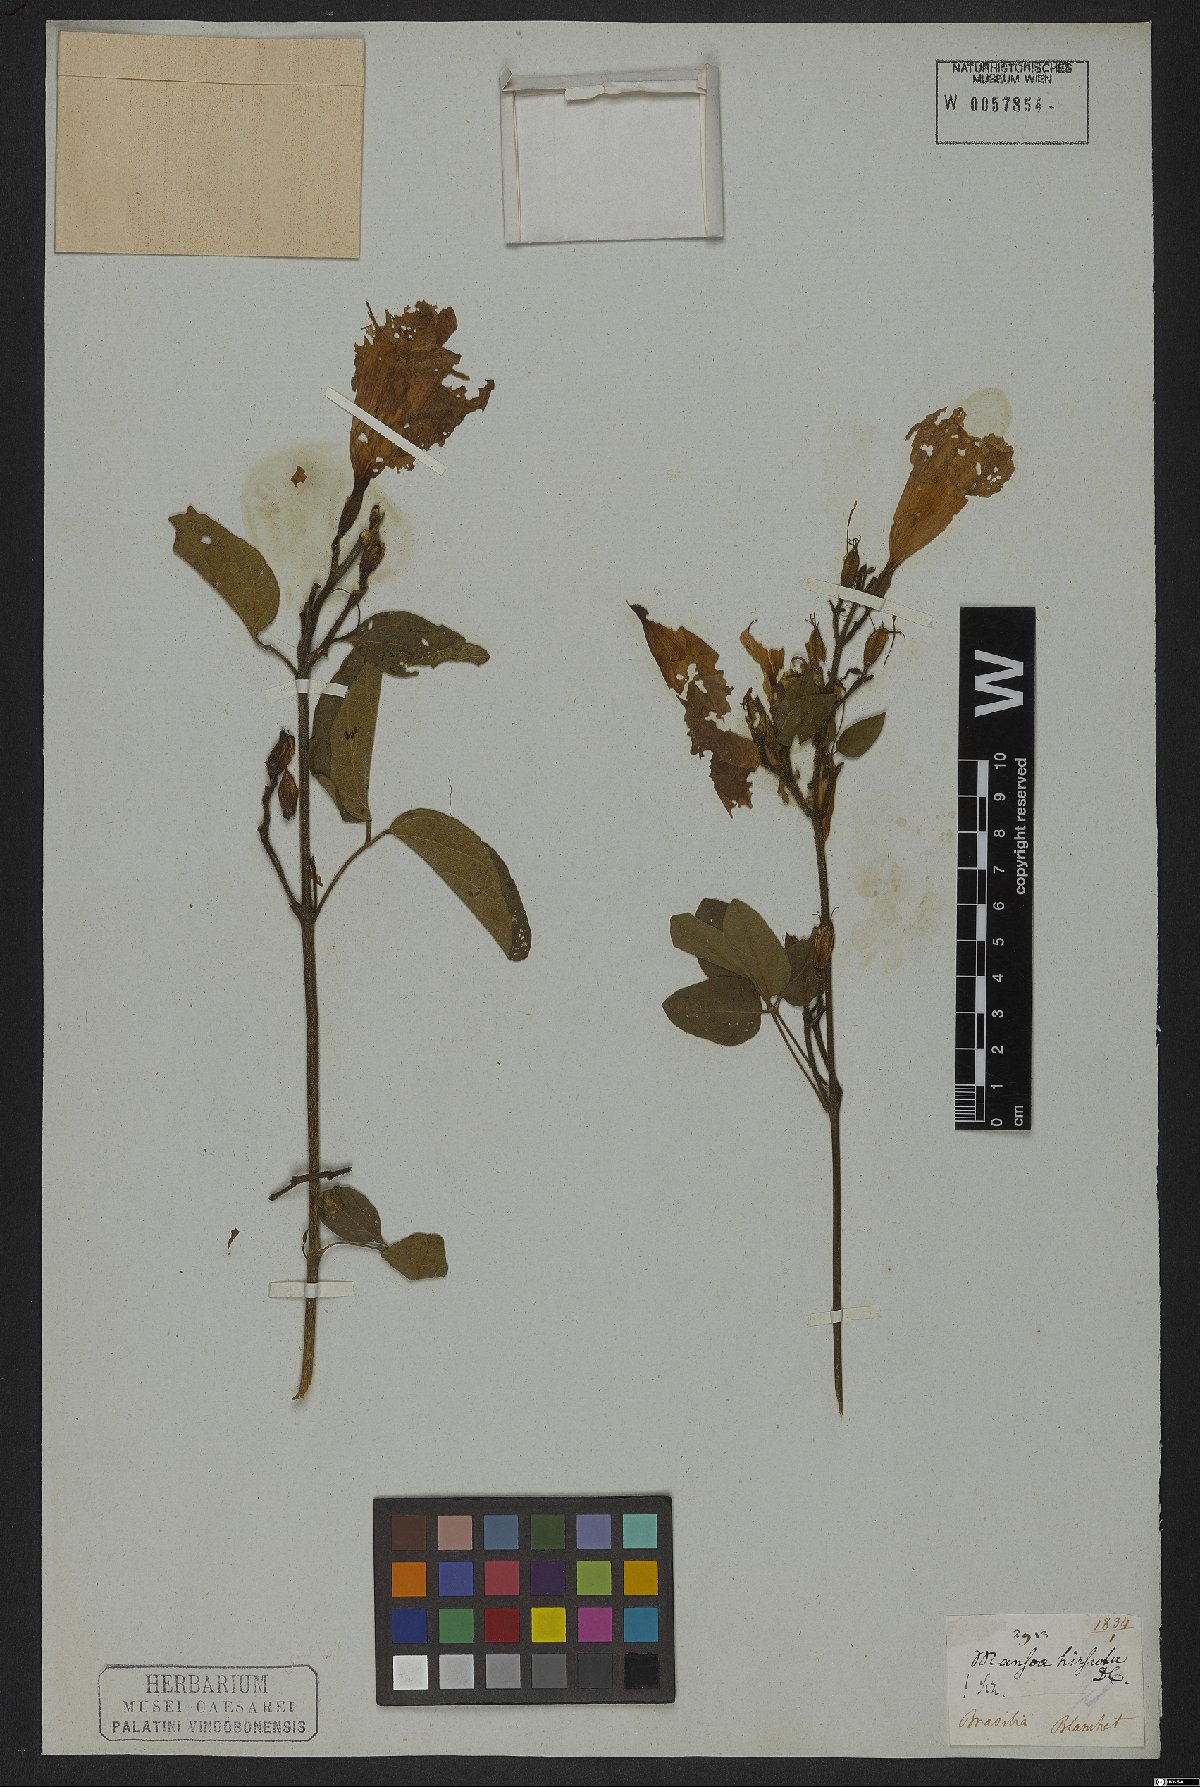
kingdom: Plantae
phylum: Tracheophyta
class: Magnoliopsida
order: Lamiales
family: Bignoniaceae
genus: Mansoa
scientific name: Mansoa hirsuta
